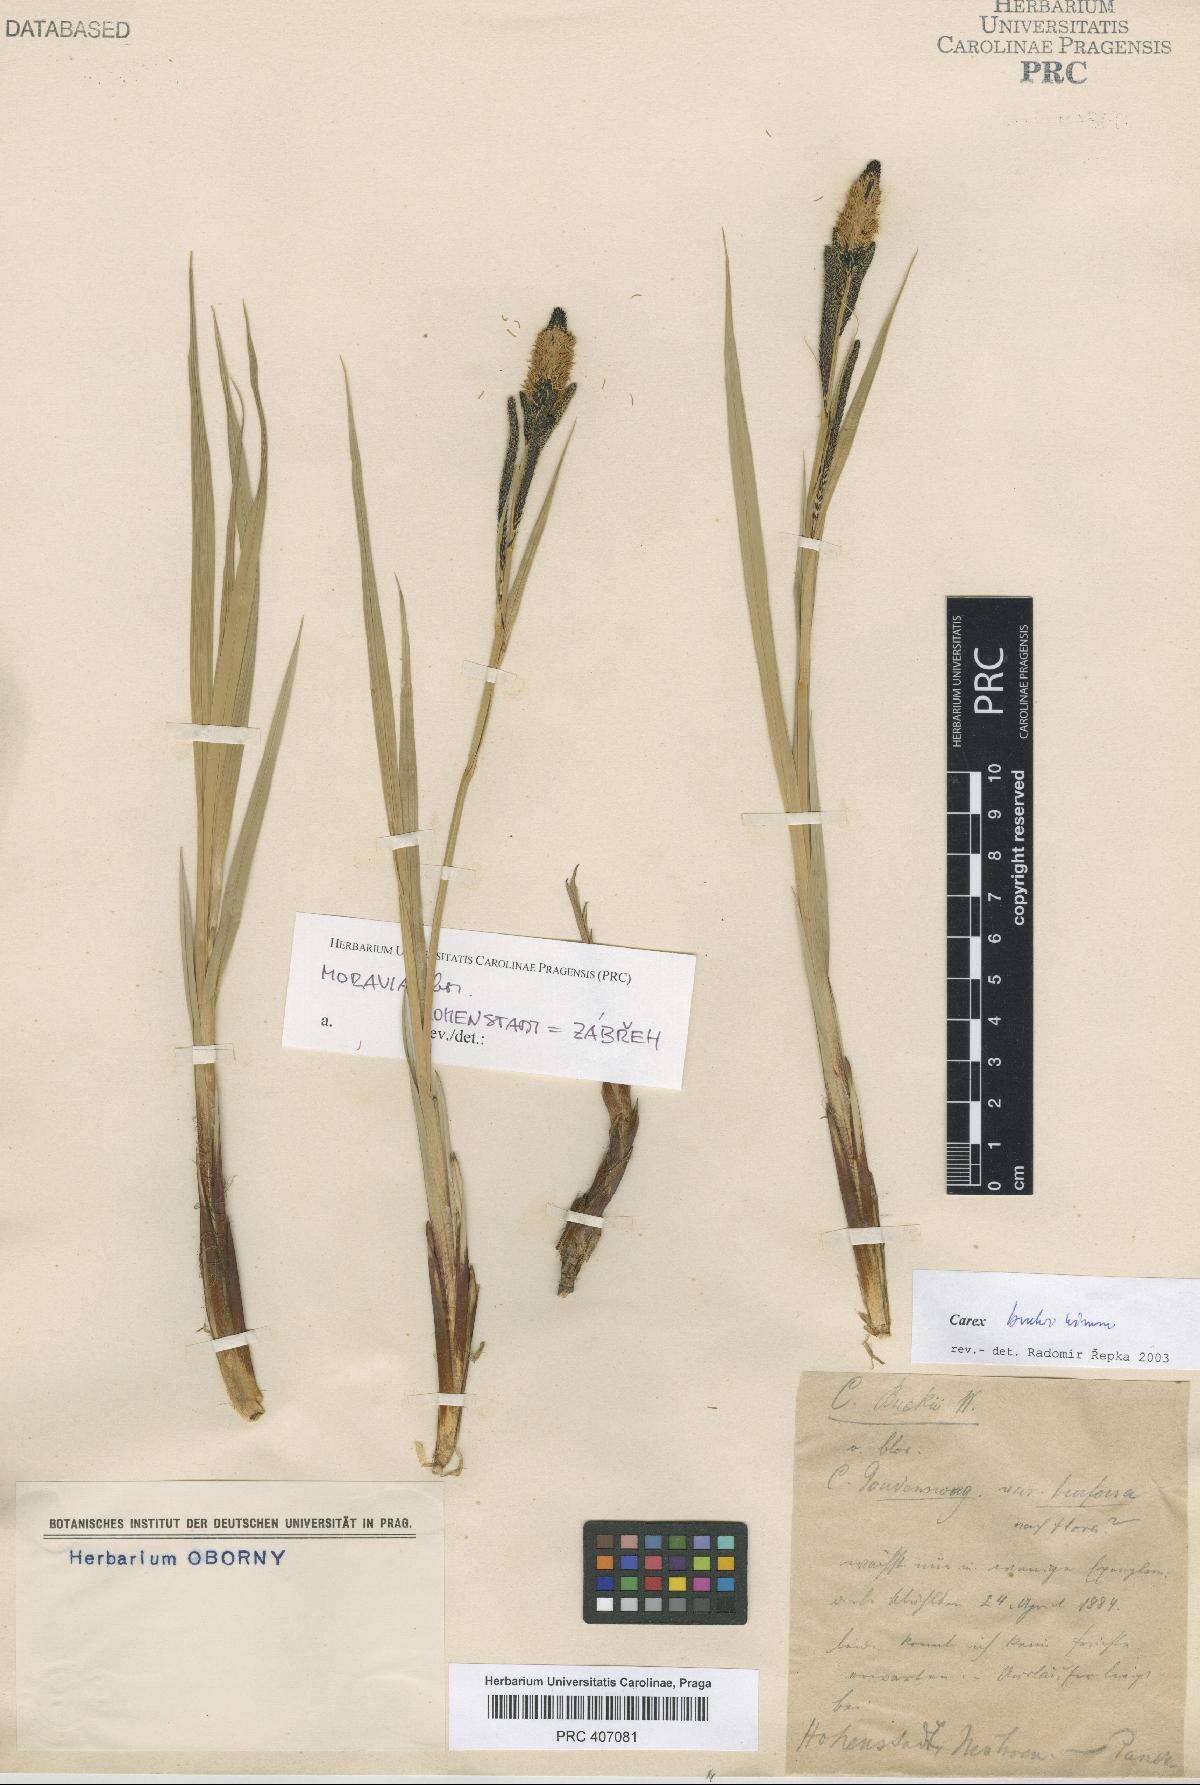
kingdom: Plantae
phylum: Tracheophyta
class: Liliopsida
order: Poales
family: Cyperaceae
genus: Carex
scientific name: Carex buekii
